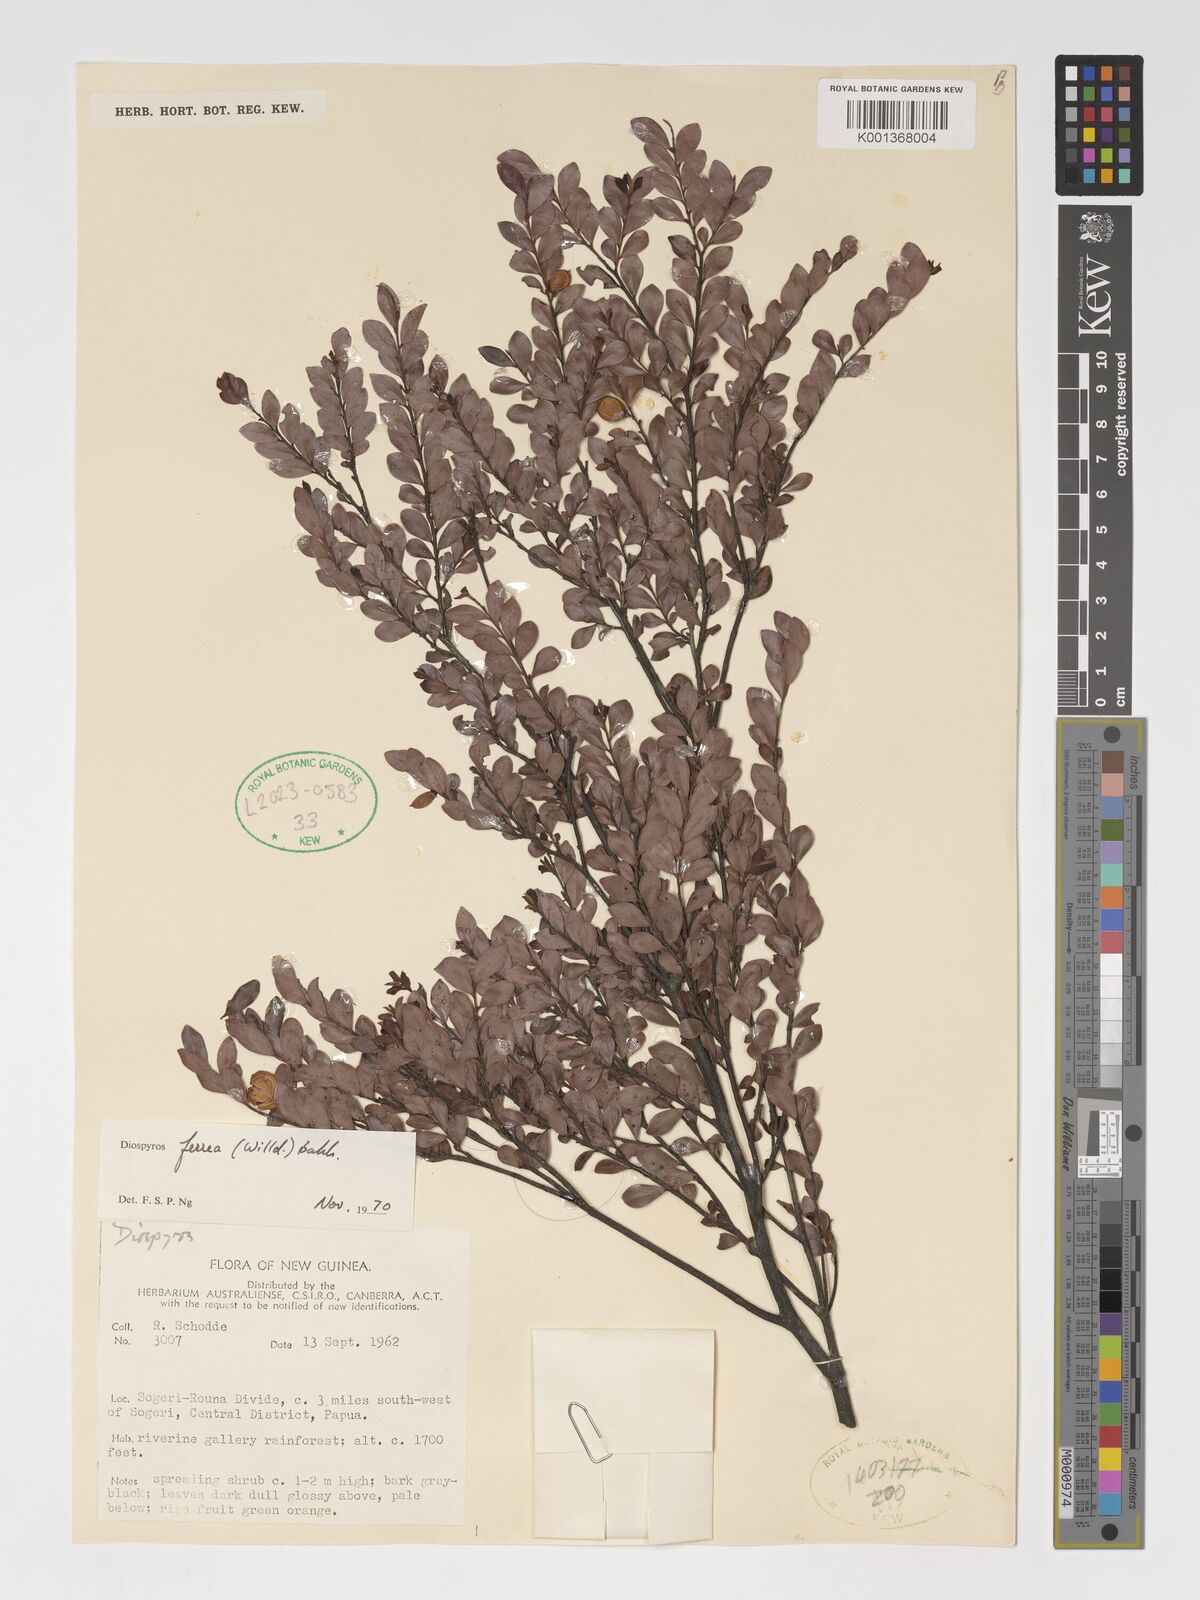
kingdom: Plantae
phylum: Tracheophyta
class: Magnoliopsida
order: Ericales
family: Ebenaceae
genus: Diospyros
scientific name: Diospyros ferrea
